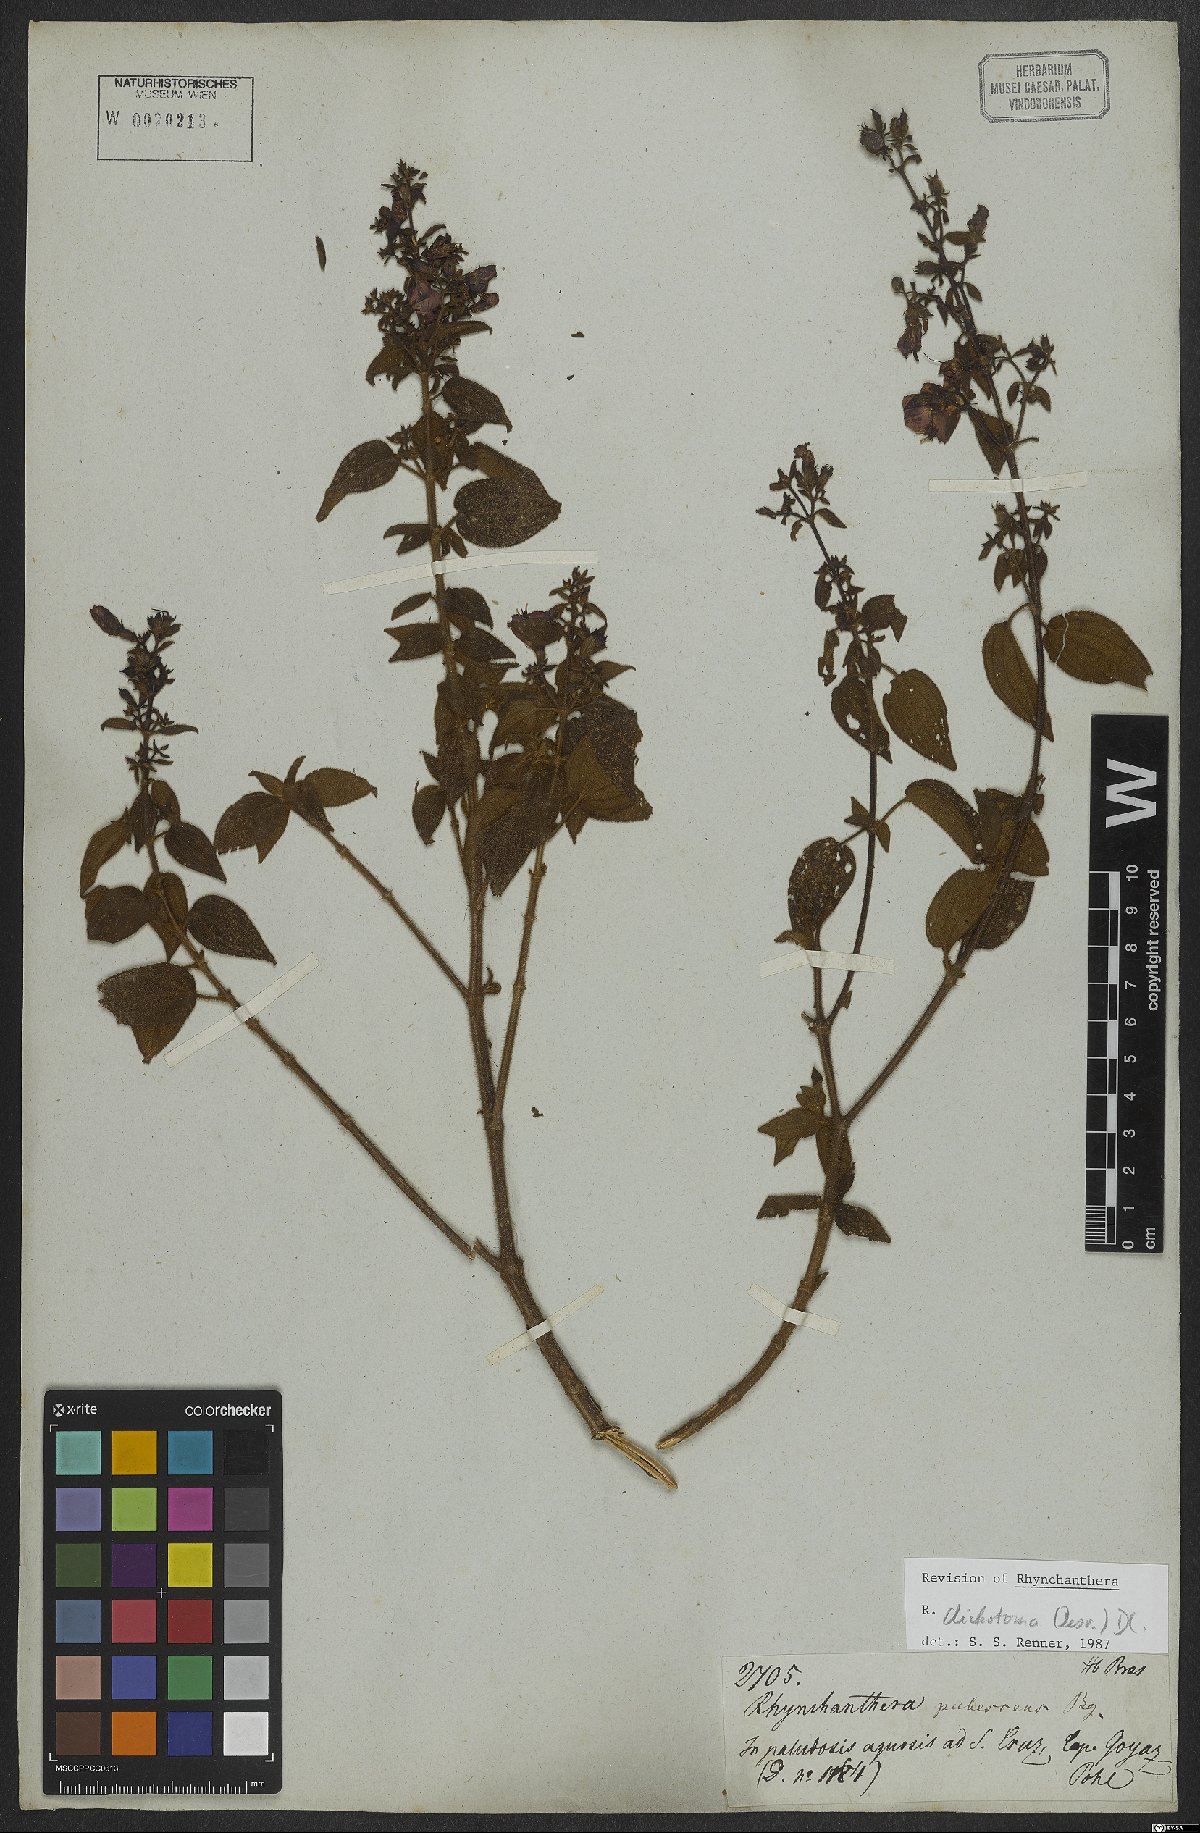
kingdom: Plantae
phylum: Tracheophyta
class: Magnoliopsida
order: Myrtales
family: Melastomataceae
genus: Rhynchanthera
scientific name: Rhynchanthera dichotoma
